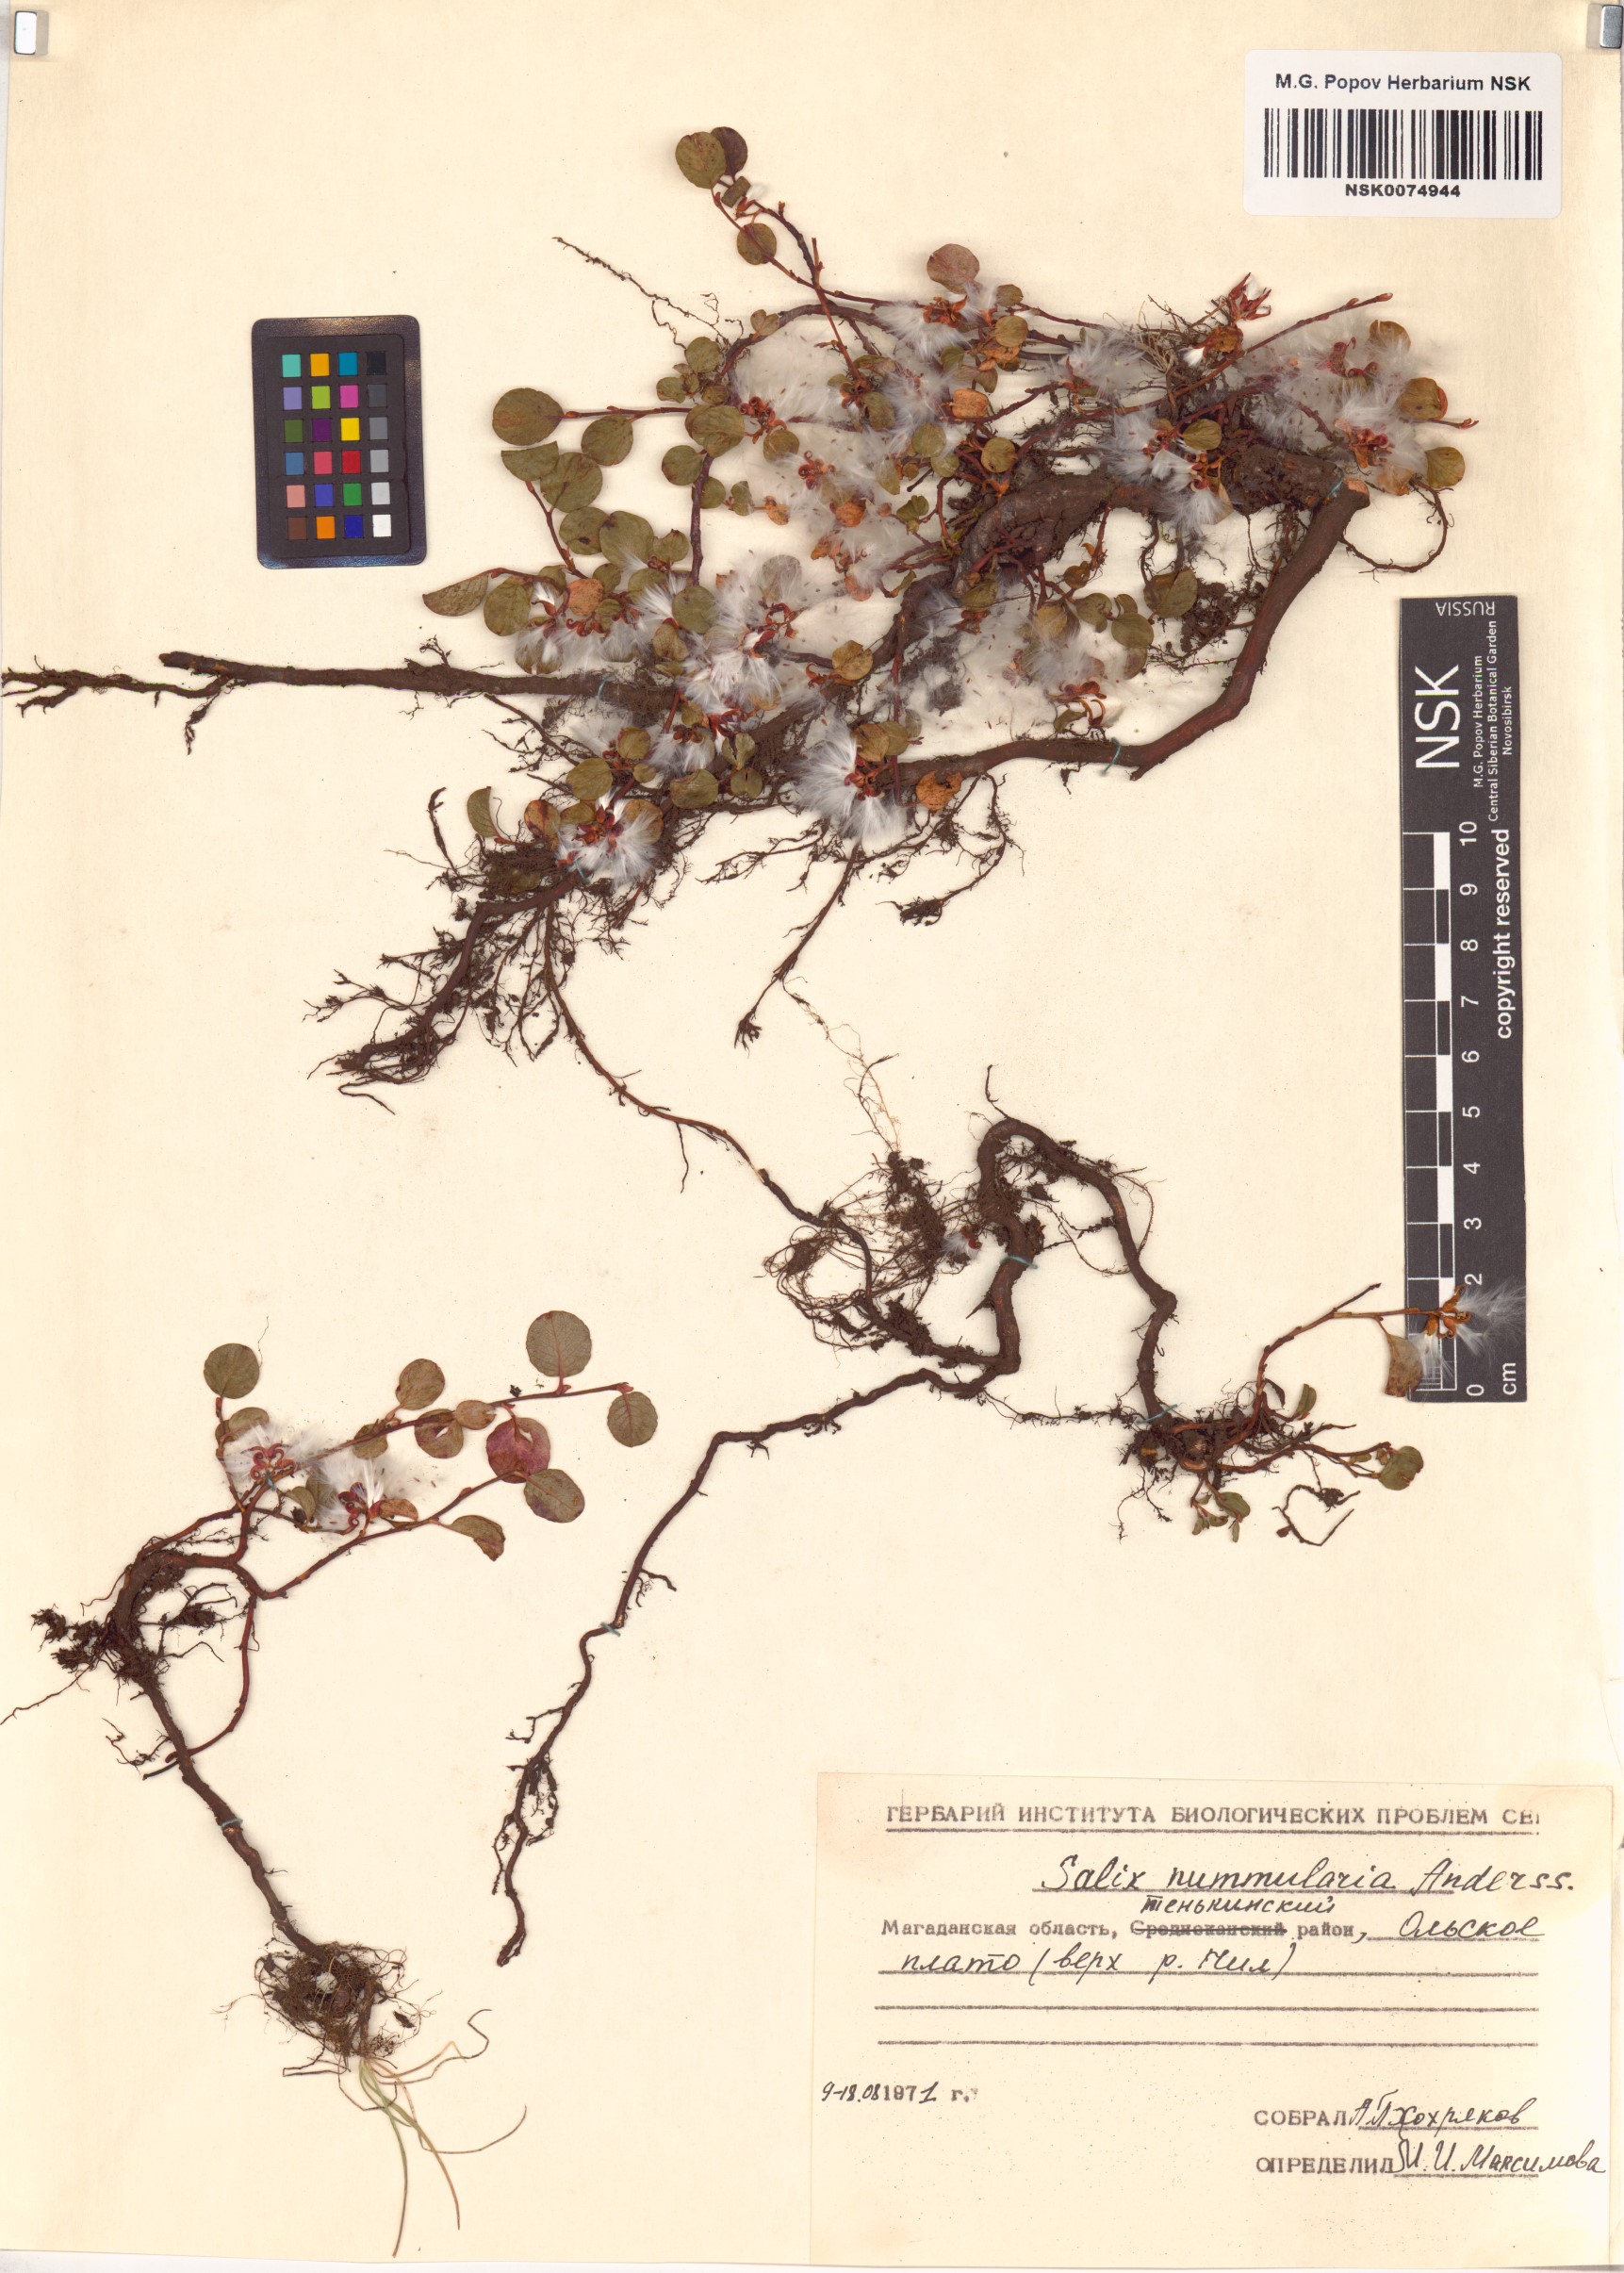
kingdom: Plantae
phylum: Tracheophyta
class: Magnoliopsida
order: Malpighiales
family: Salicaceae
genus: Salix
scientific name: Salix nummularia
